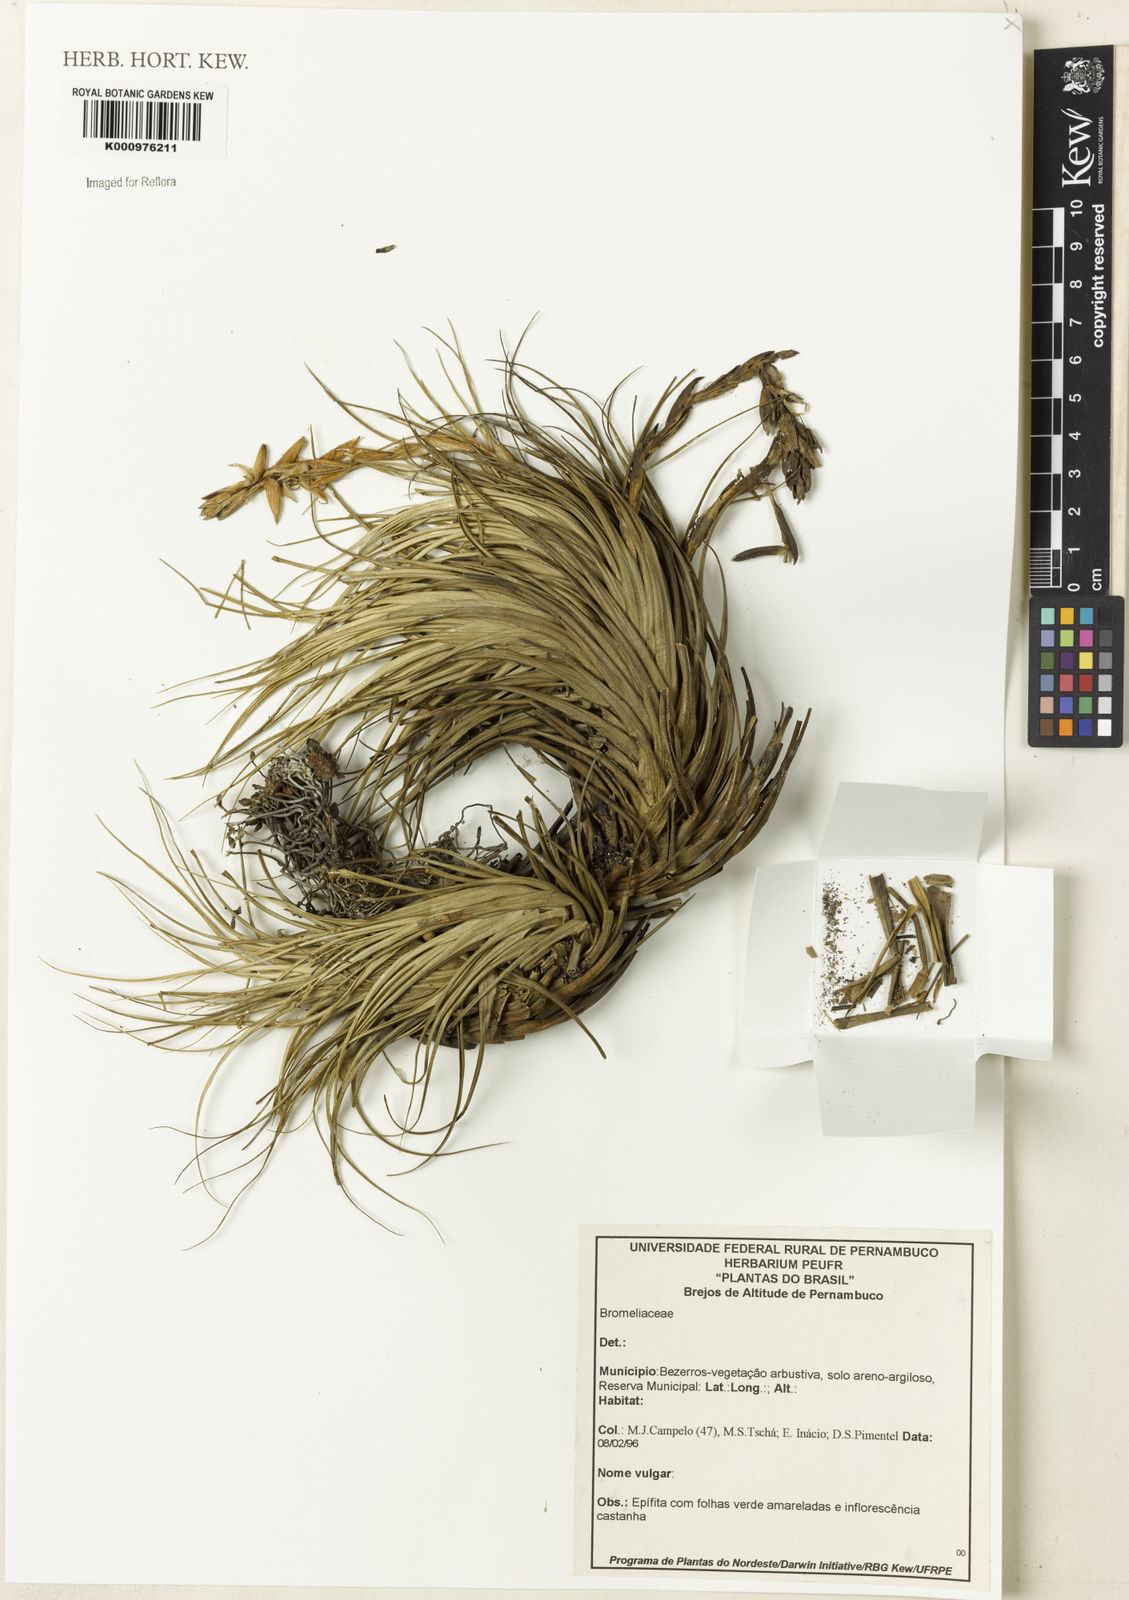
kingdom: Plantae
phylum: Tracheophyta
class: Liliopsida
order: Poales
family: Bromeliaceae
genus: Tillandsia
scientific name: Tillandsia
